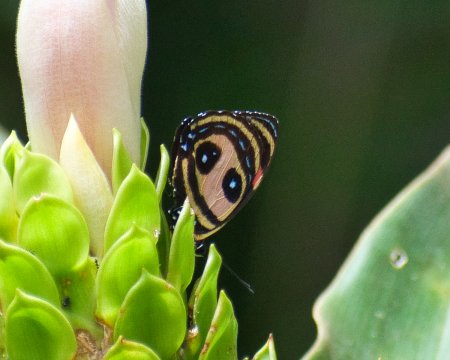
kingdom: Animalia
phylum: Arthropoda
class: Insecta
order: Lepidoptera
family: Nymphalidae
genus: Catagramma
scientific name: Catagramma Callicore pitheas
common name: Two-eyed Eighty-eight
